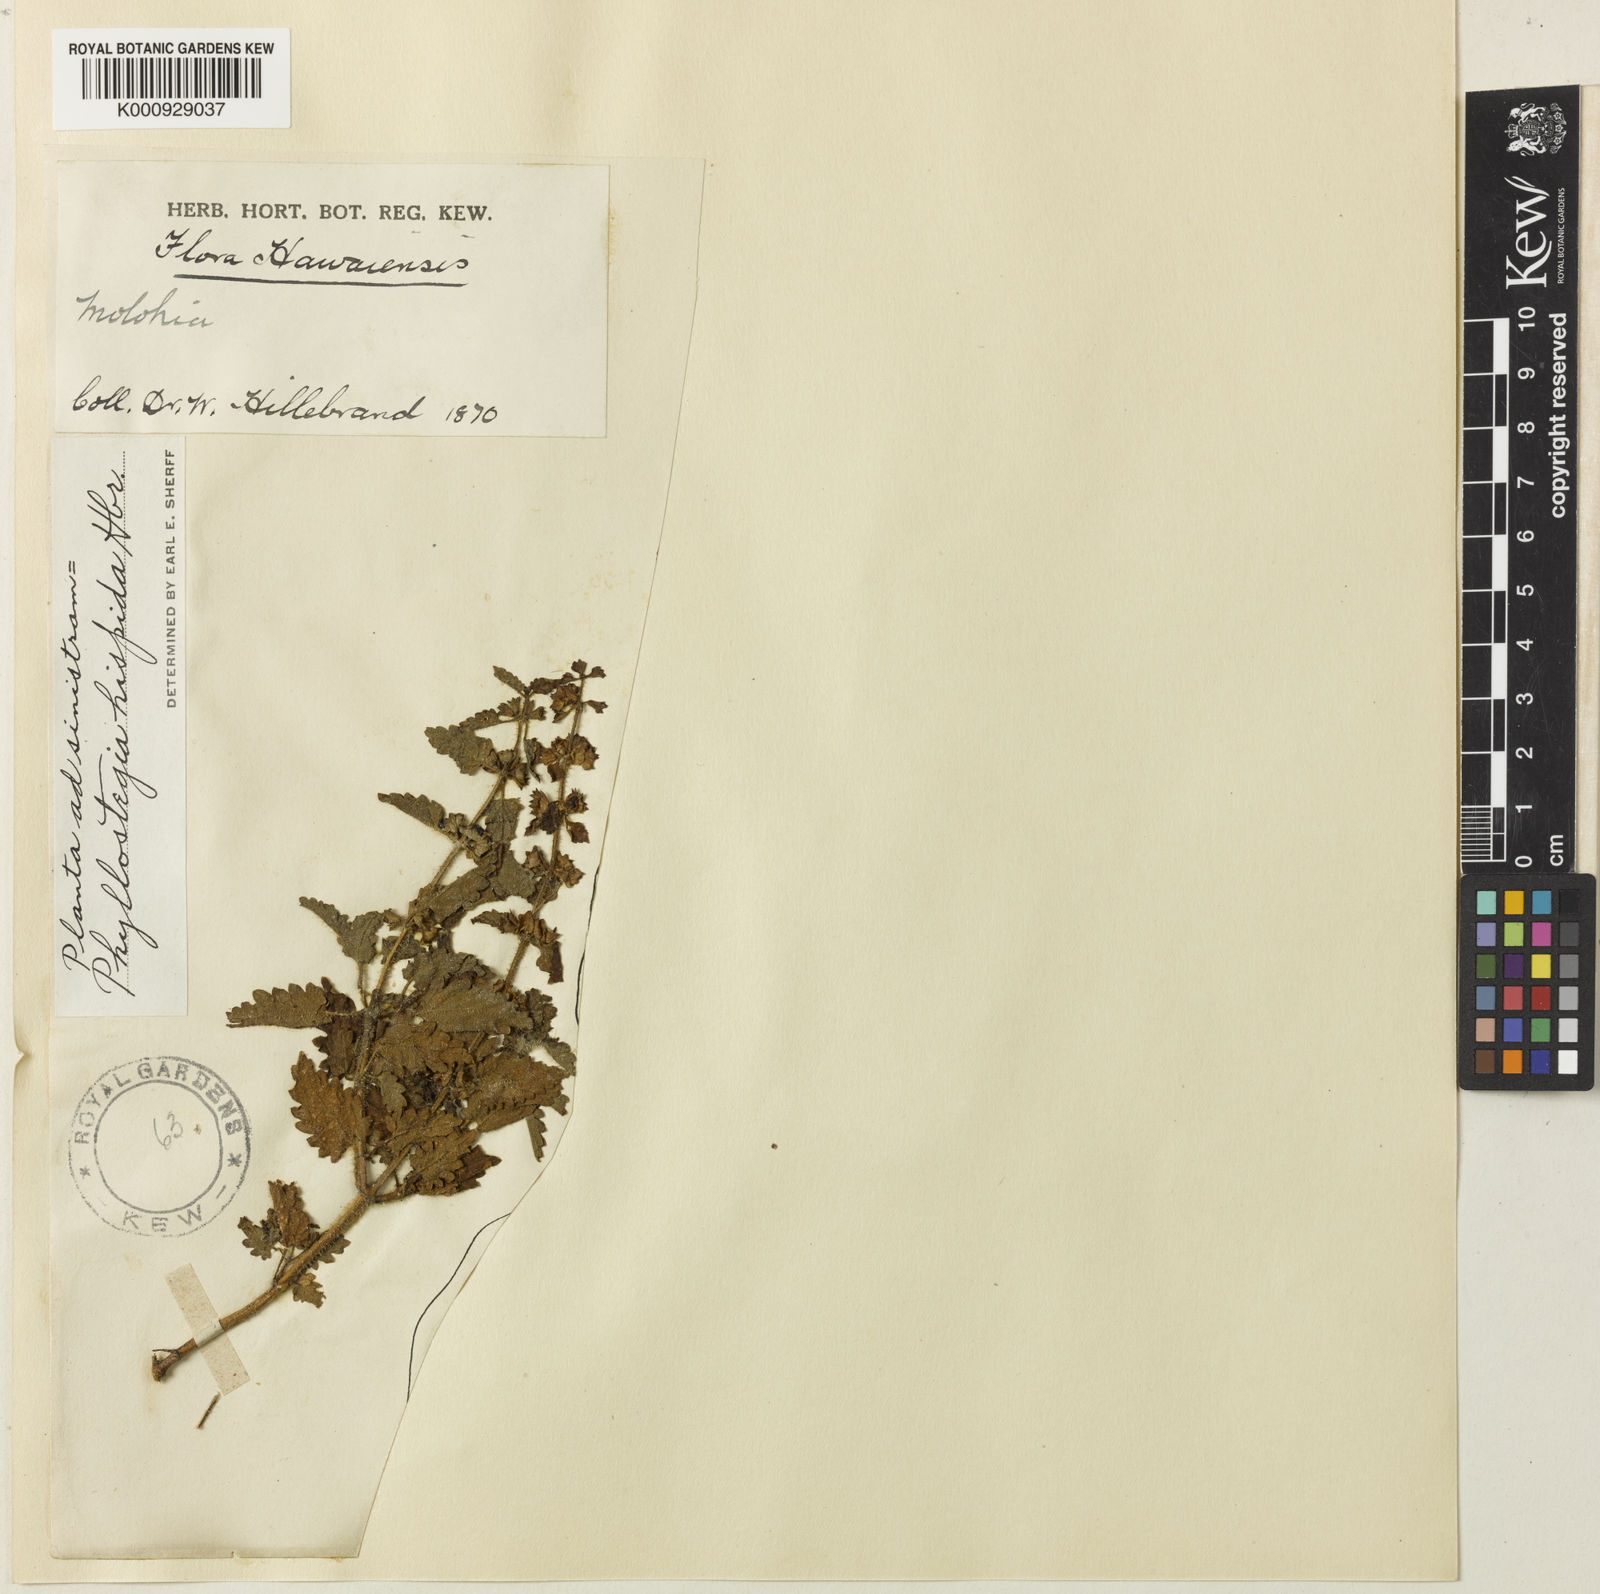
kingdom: Plantae
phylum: Tracheophyta
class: Magnoliopsida
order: Lamiales
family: Lamiaceae
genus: Phyllostegia
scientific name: Phyllostegia hispida
